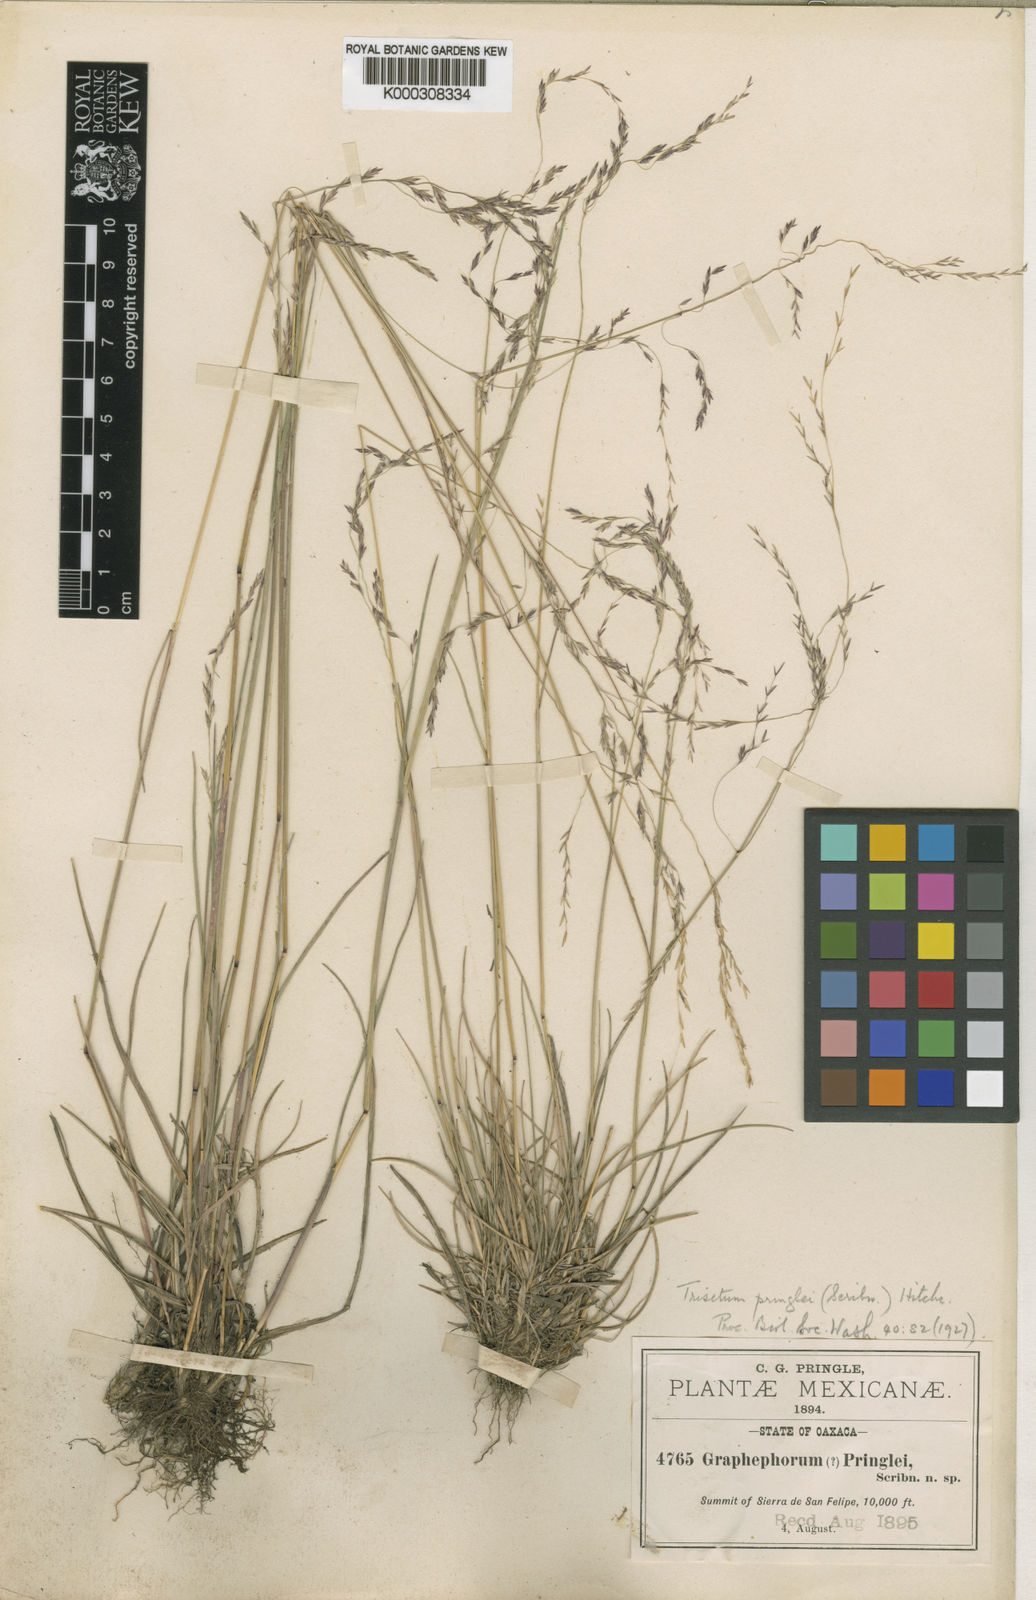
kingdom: Plantae
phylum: Tracheophyta
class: Liliopsida
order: Poales
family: Poaceae
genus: Peyritschia
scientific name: Peyritschia graphephoroides
